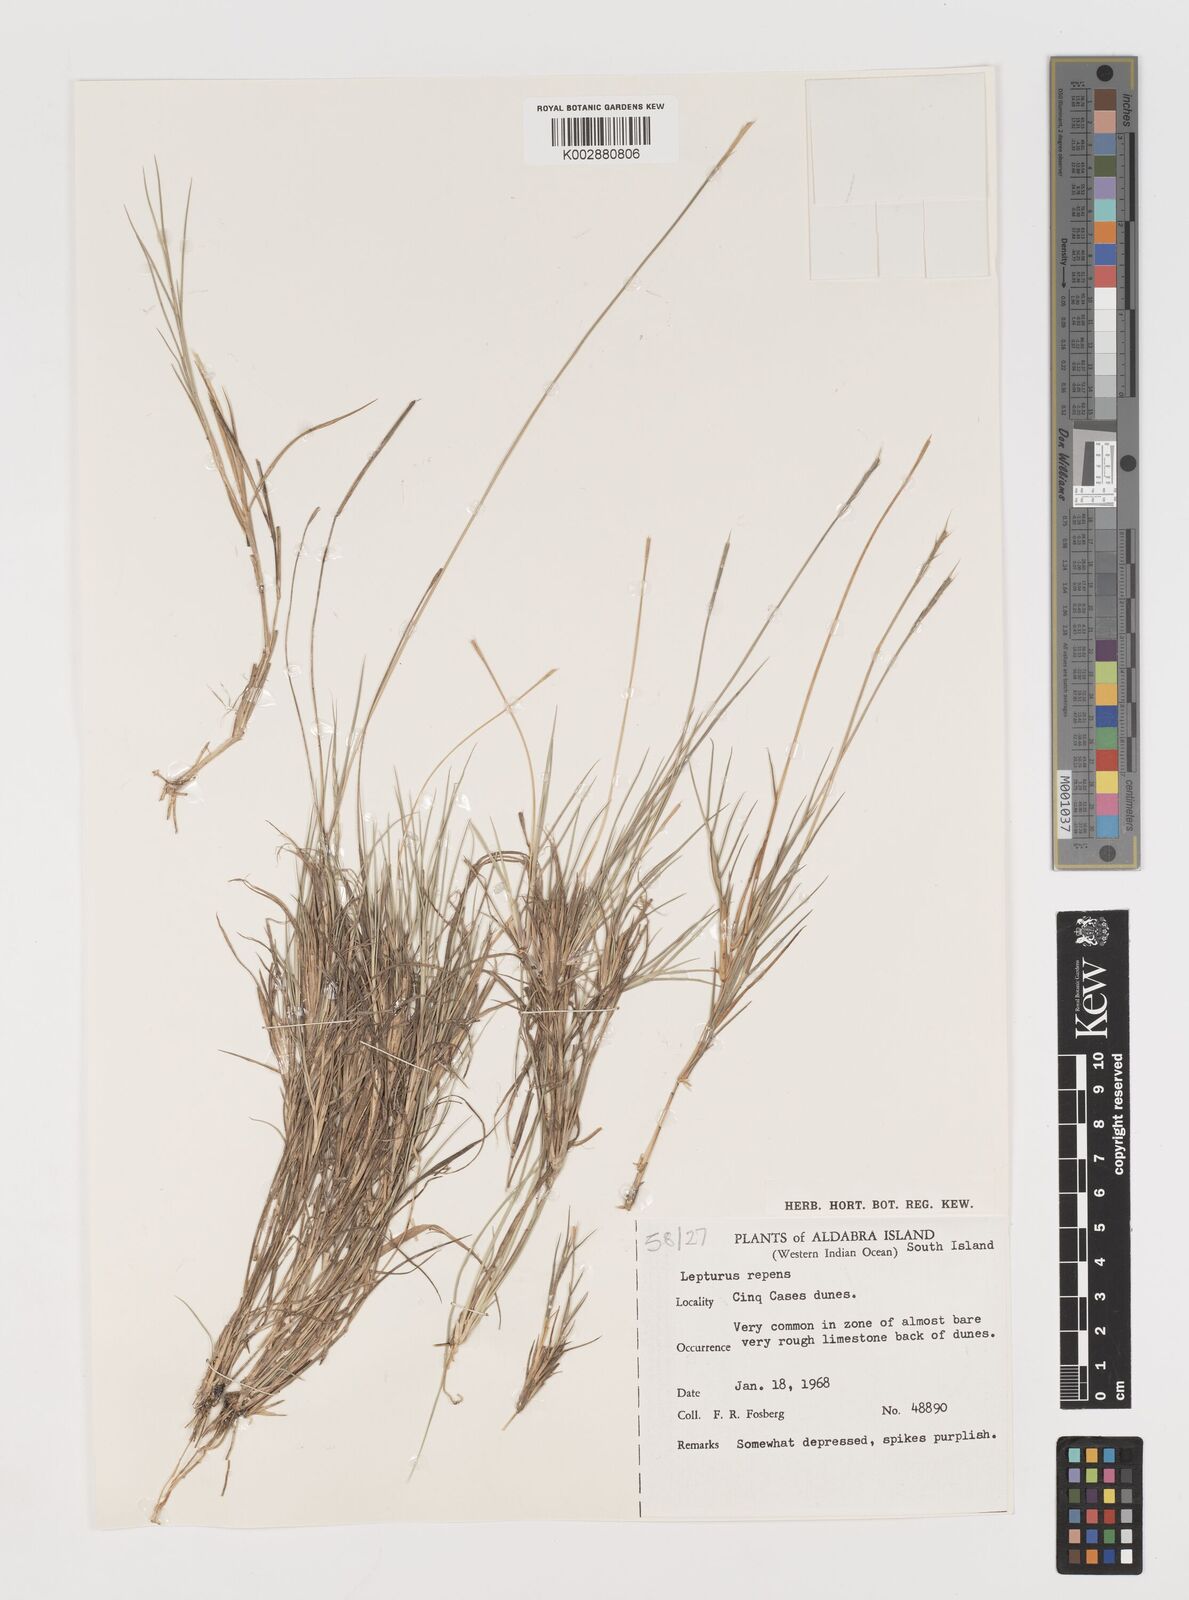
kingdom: Plantae
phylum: Tracheophyta
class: Liliopsida
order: Poales
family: Poaceae
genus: Lepturus
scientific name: Lepturus repens
